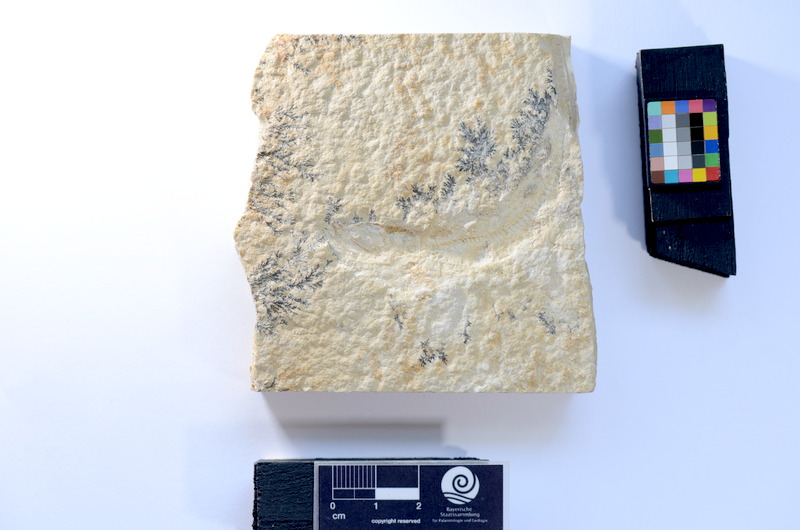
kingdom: Animalia
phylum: Chordata
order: Salmoniformes
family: Orthogonikleithridae
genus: Leptolepides
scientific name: Leptolepides
